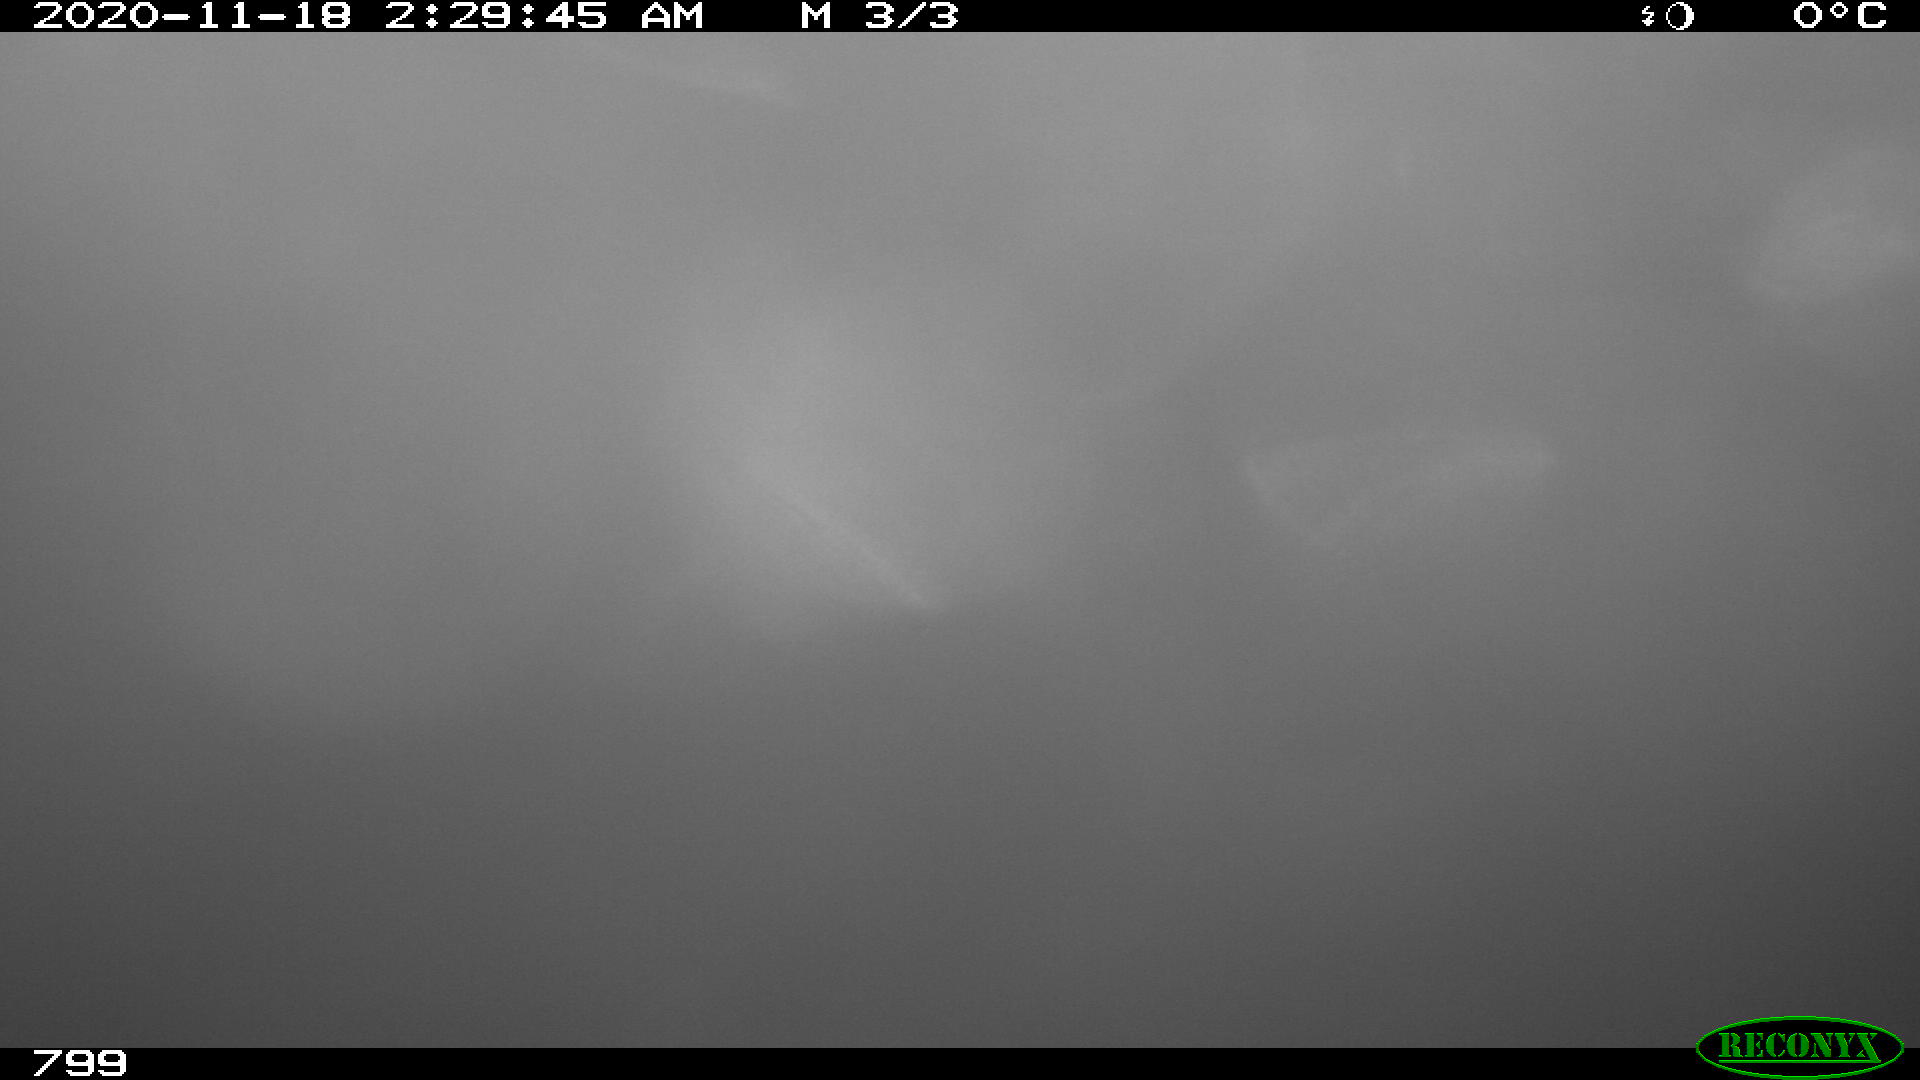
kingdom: Animalia
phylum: Chordata
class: Mammalia
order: Perissodactyla
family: Equidae
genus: Equus
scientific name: Equus caballus
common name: Horse
